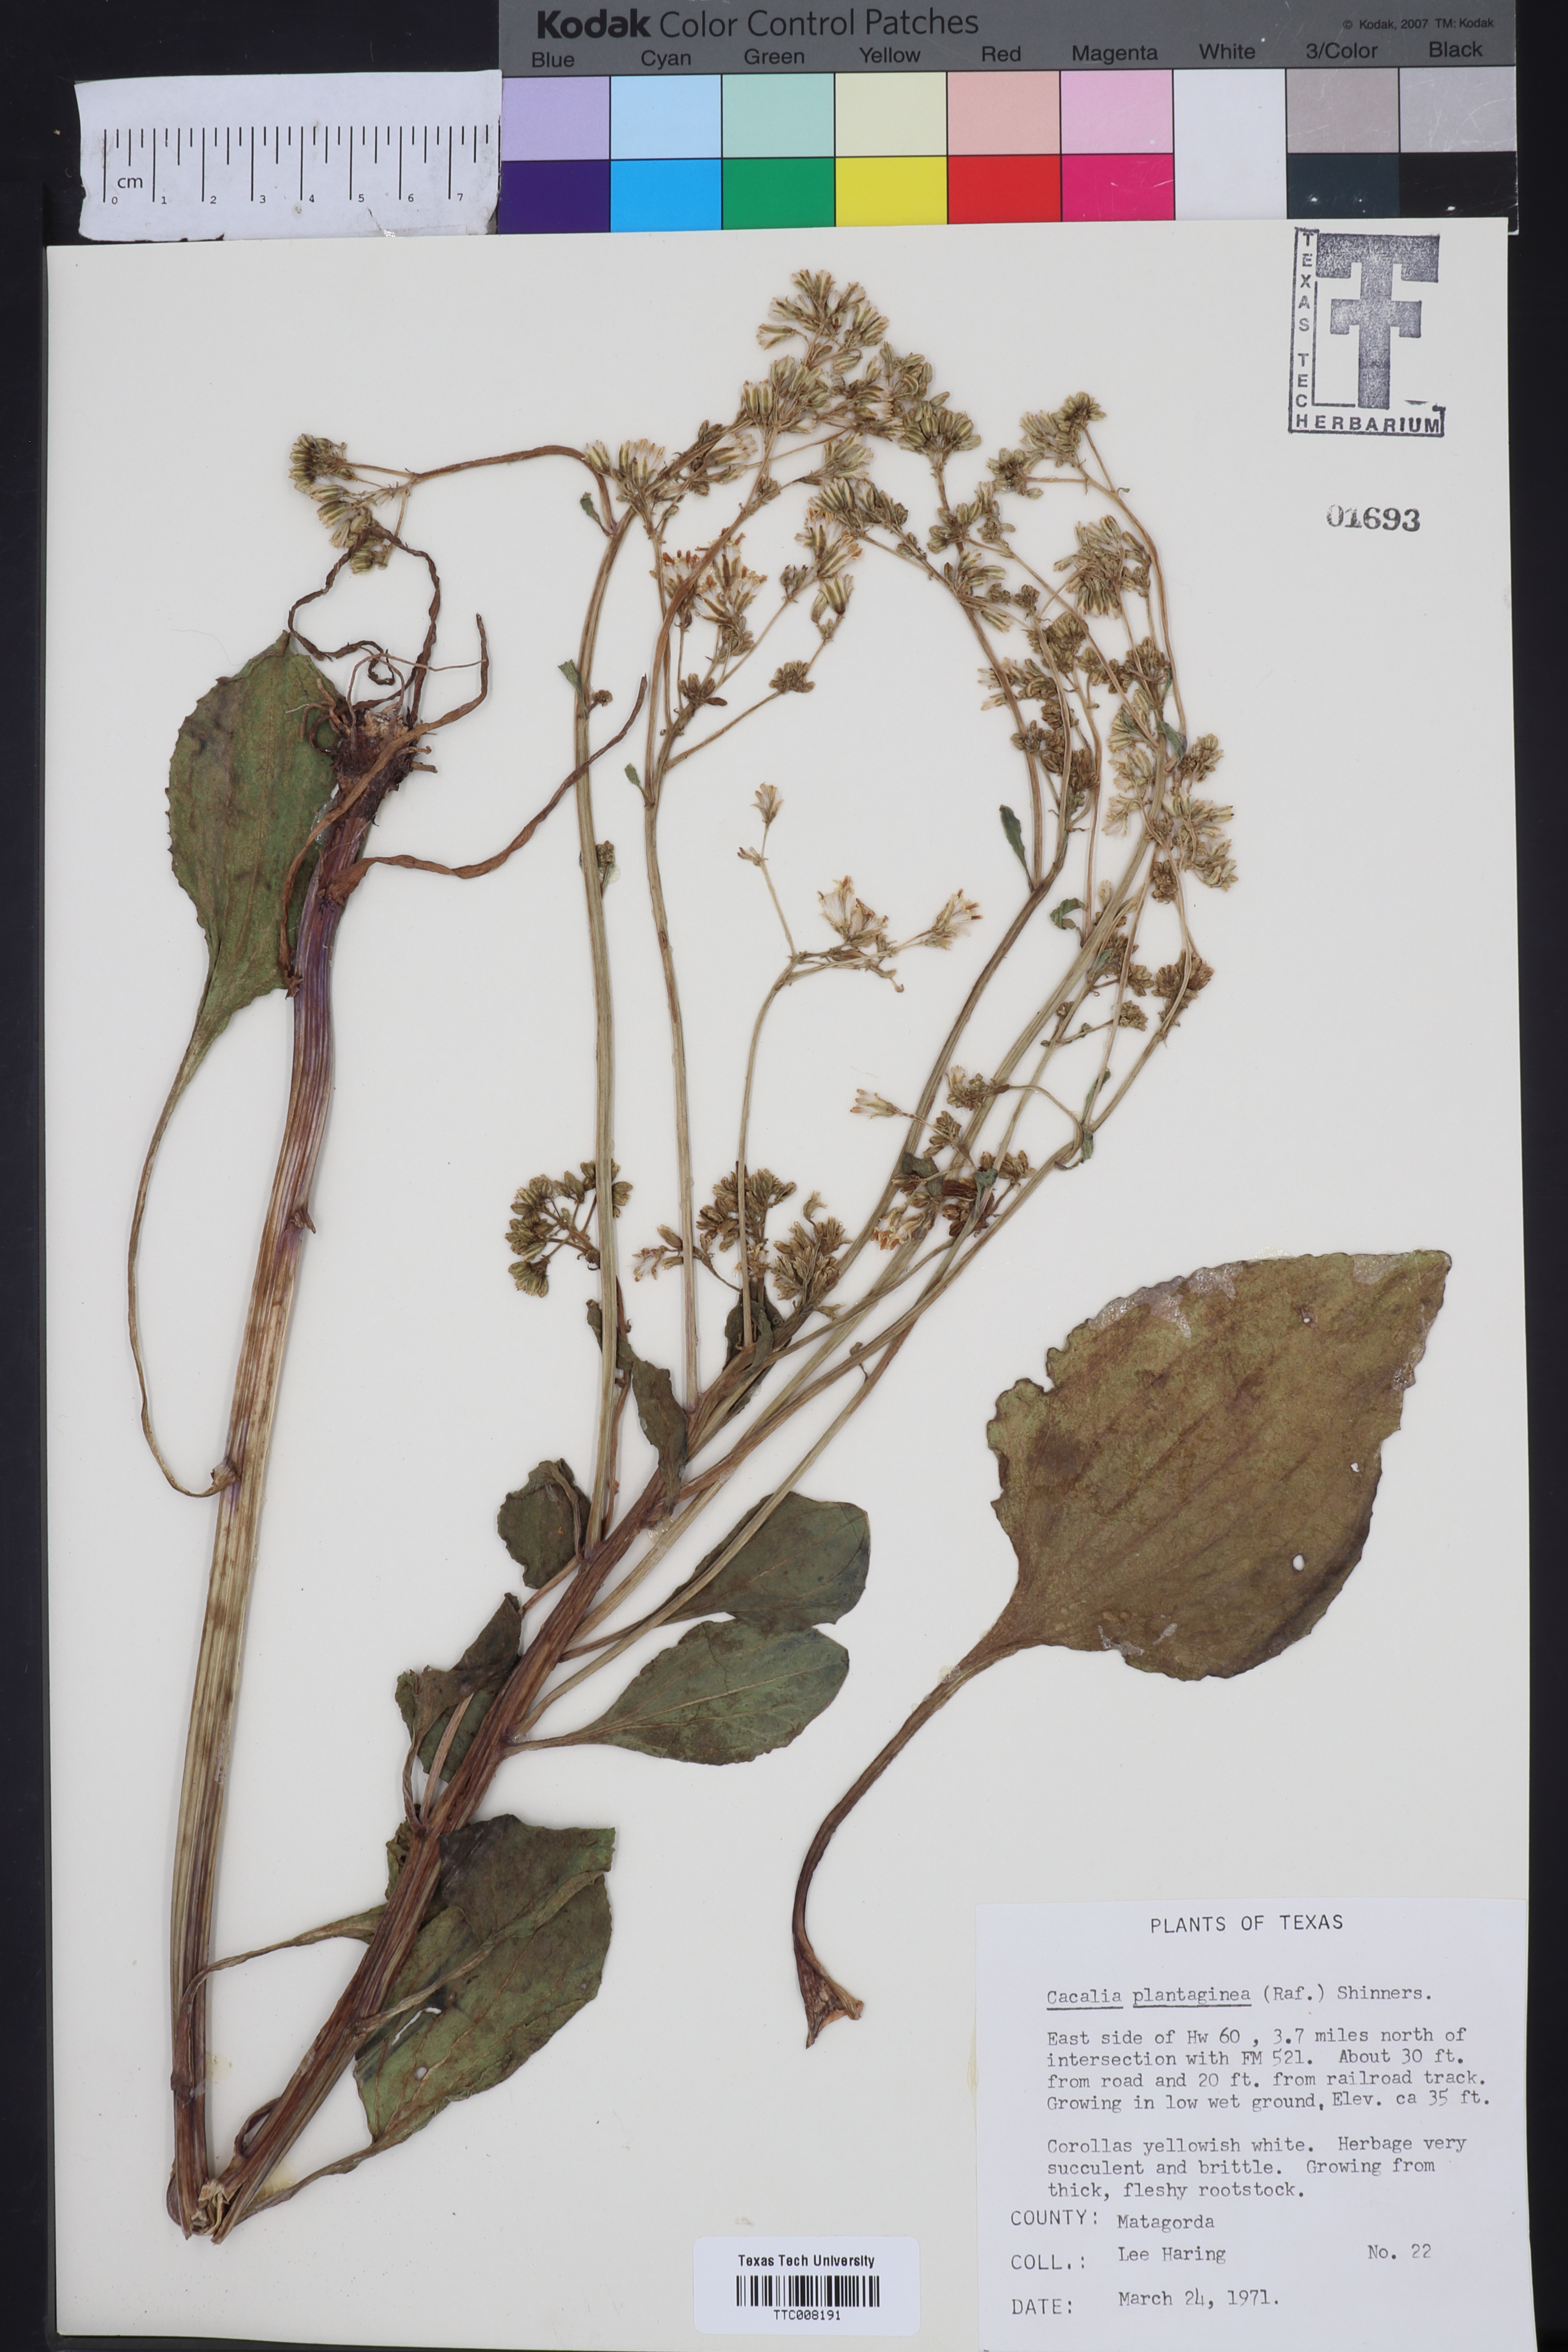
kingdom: Plantae
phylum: Tracheophyta
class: Magnoliopsida
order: Asterales
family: Asteraceae
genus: Arnoglossum
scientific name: Arnoglossum plantagineum
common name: Groove-stemmed indian-plantain
